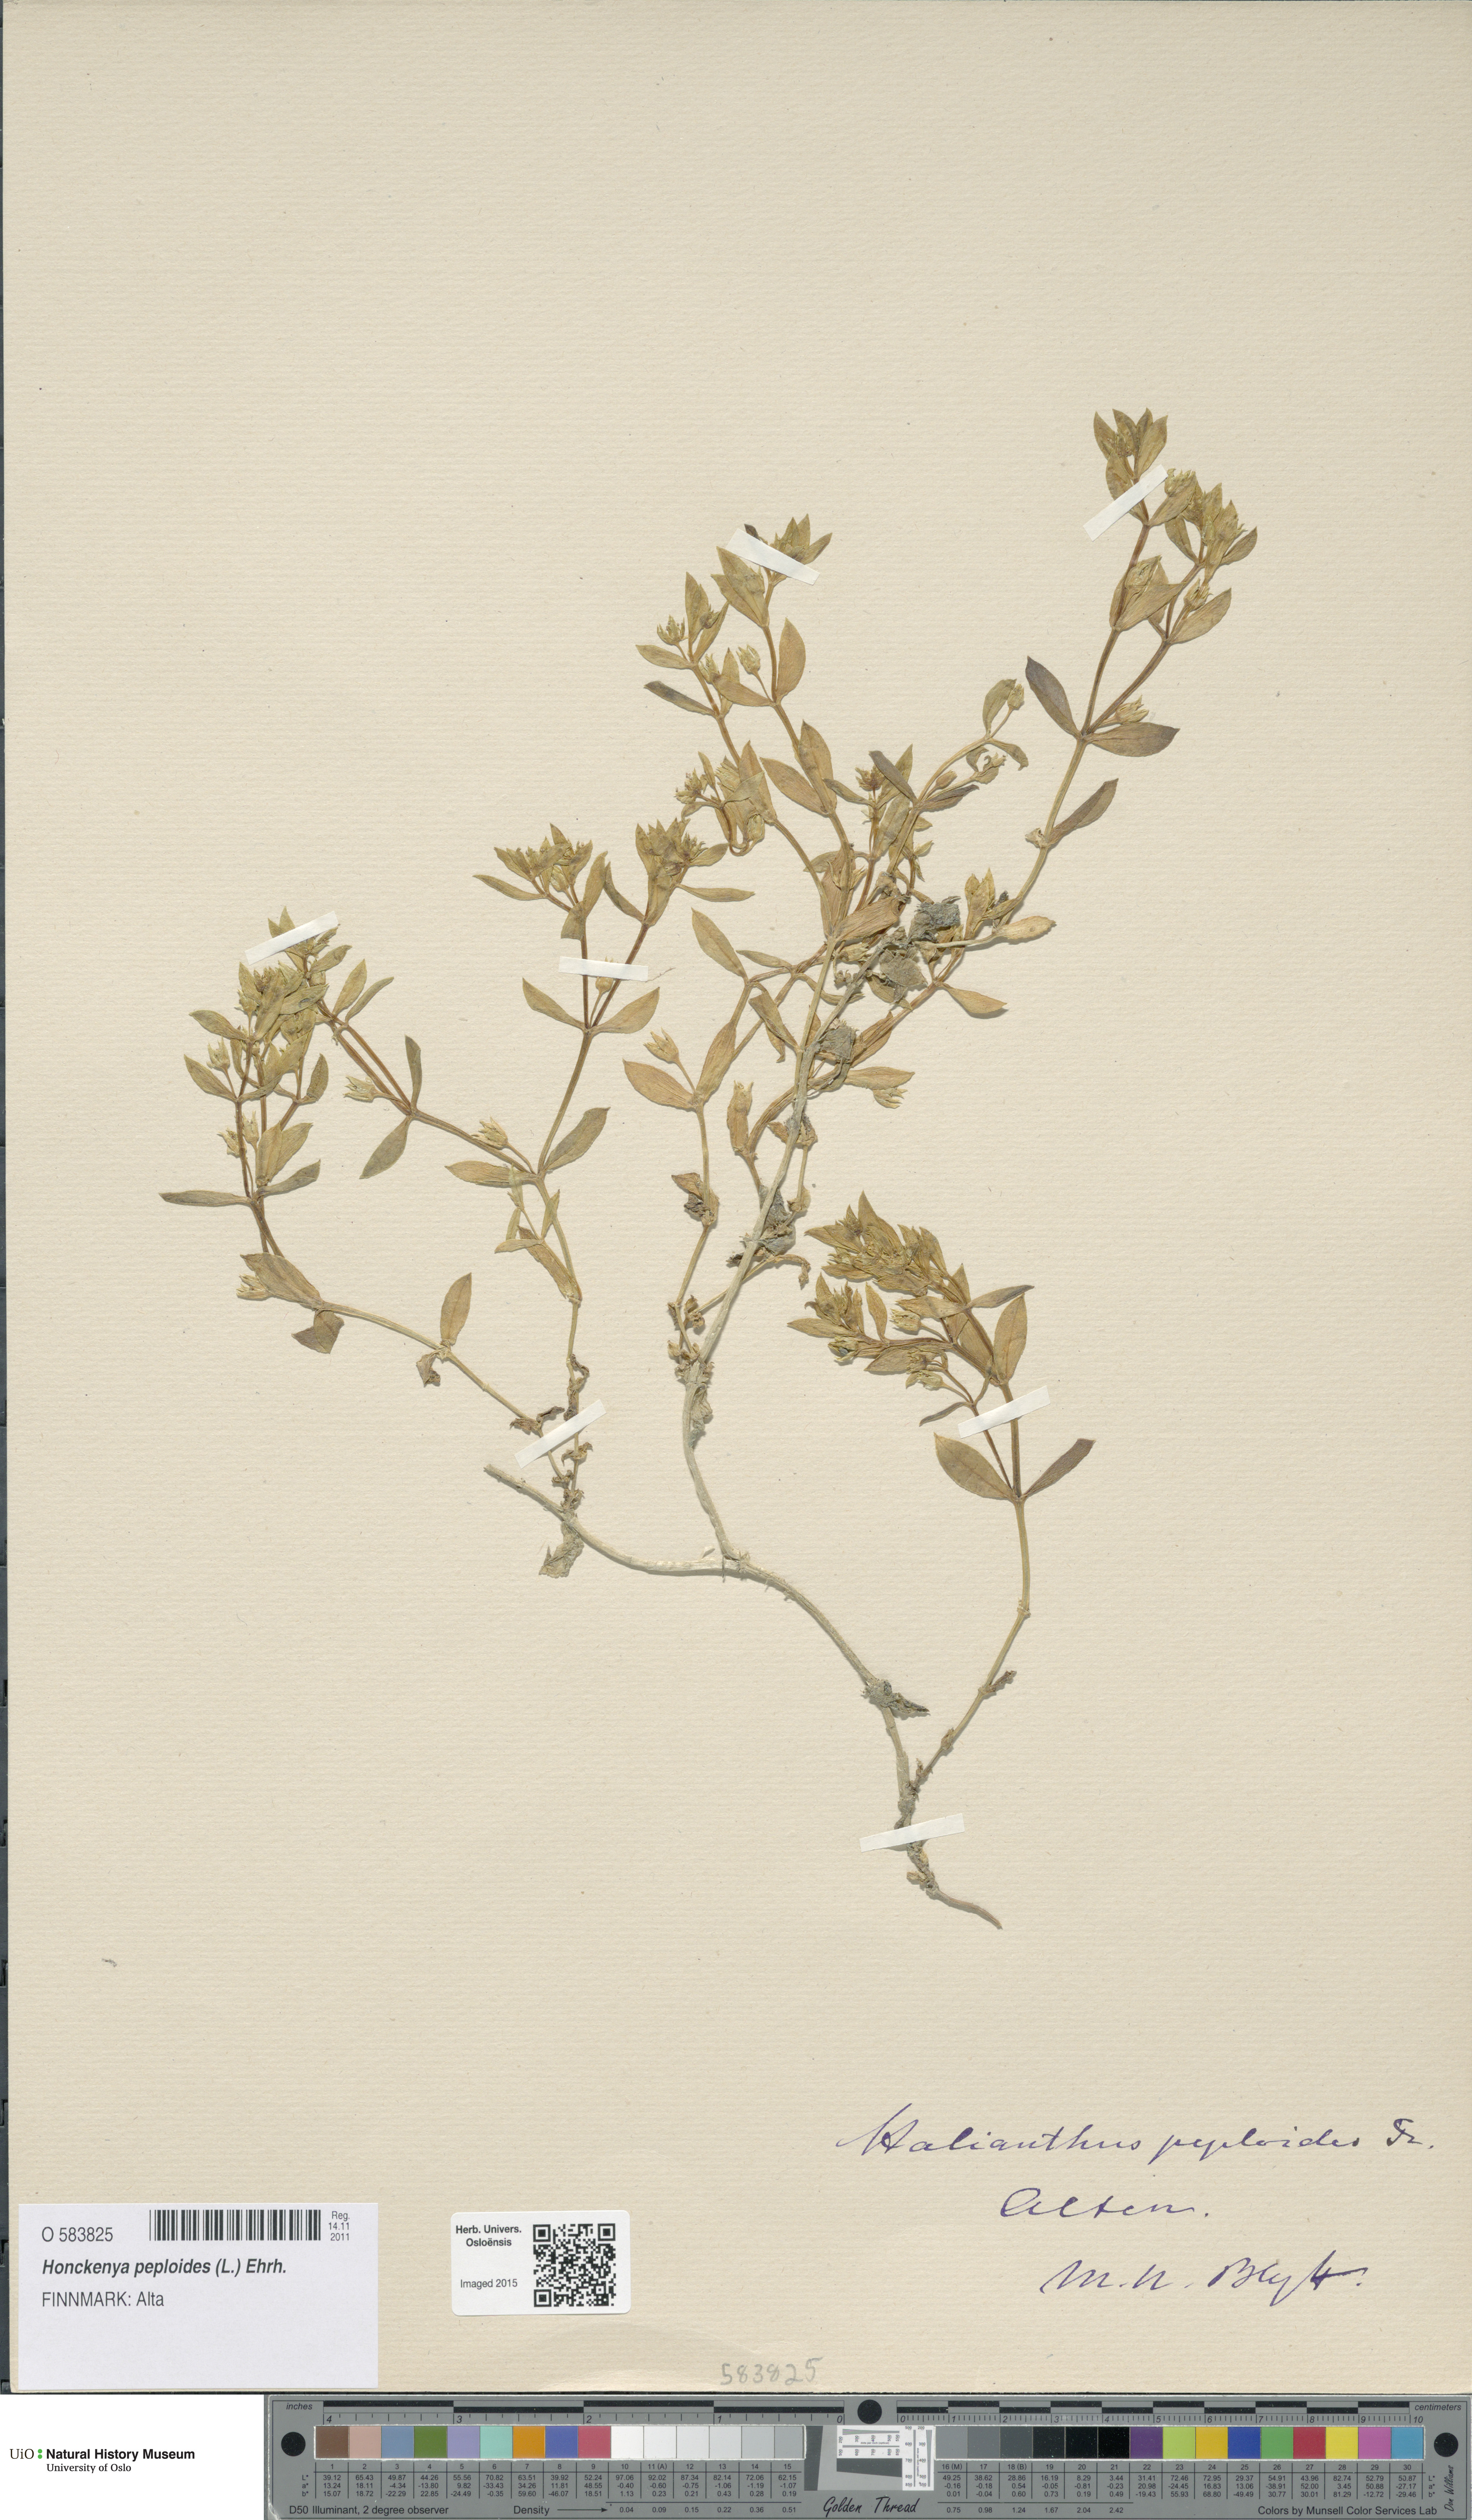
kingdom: Plantae
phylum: Tracheophyta
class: Magnoliopsida
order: Caryophyllales
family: Caryophyllaceae
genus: Honckenya
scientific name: Honckenya peploides
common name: Sea sandwort
